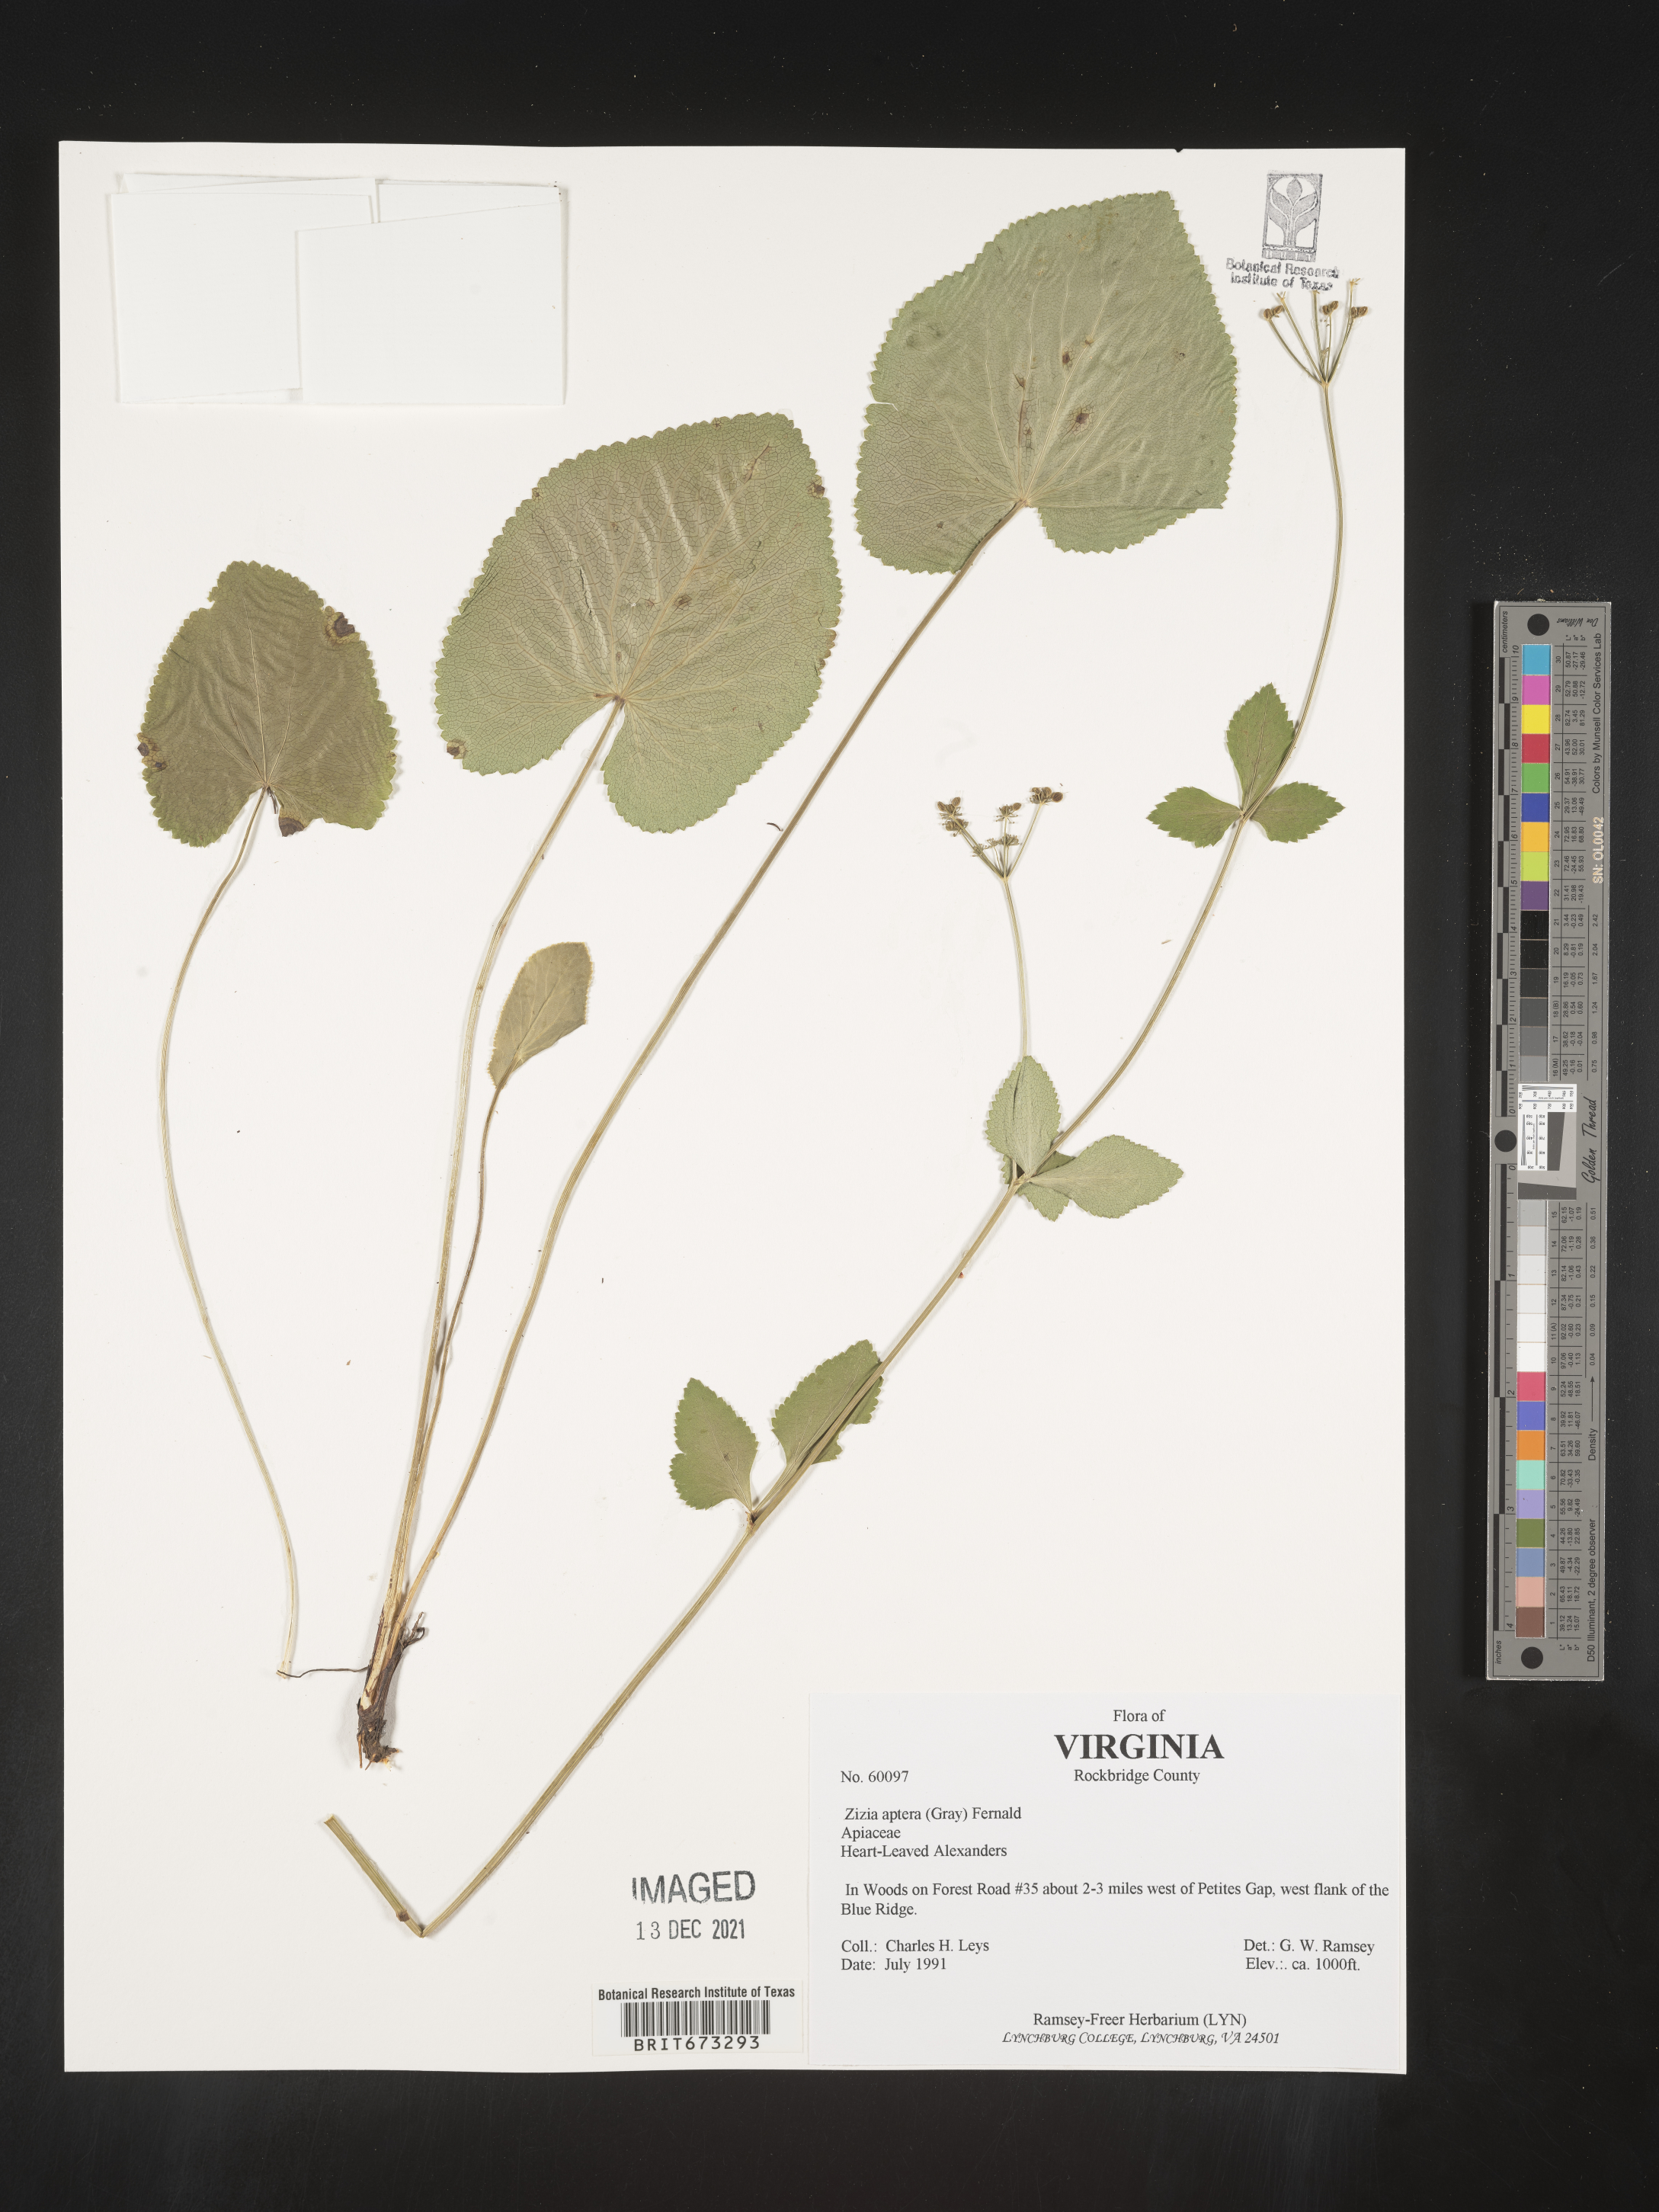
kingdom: Plantae
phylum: Tracheophyta
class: Magnoliopsida
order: Apiales
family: Apiaceae
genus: Zizia
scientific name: Zizia aptera
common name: Heart-leaved alexanders
